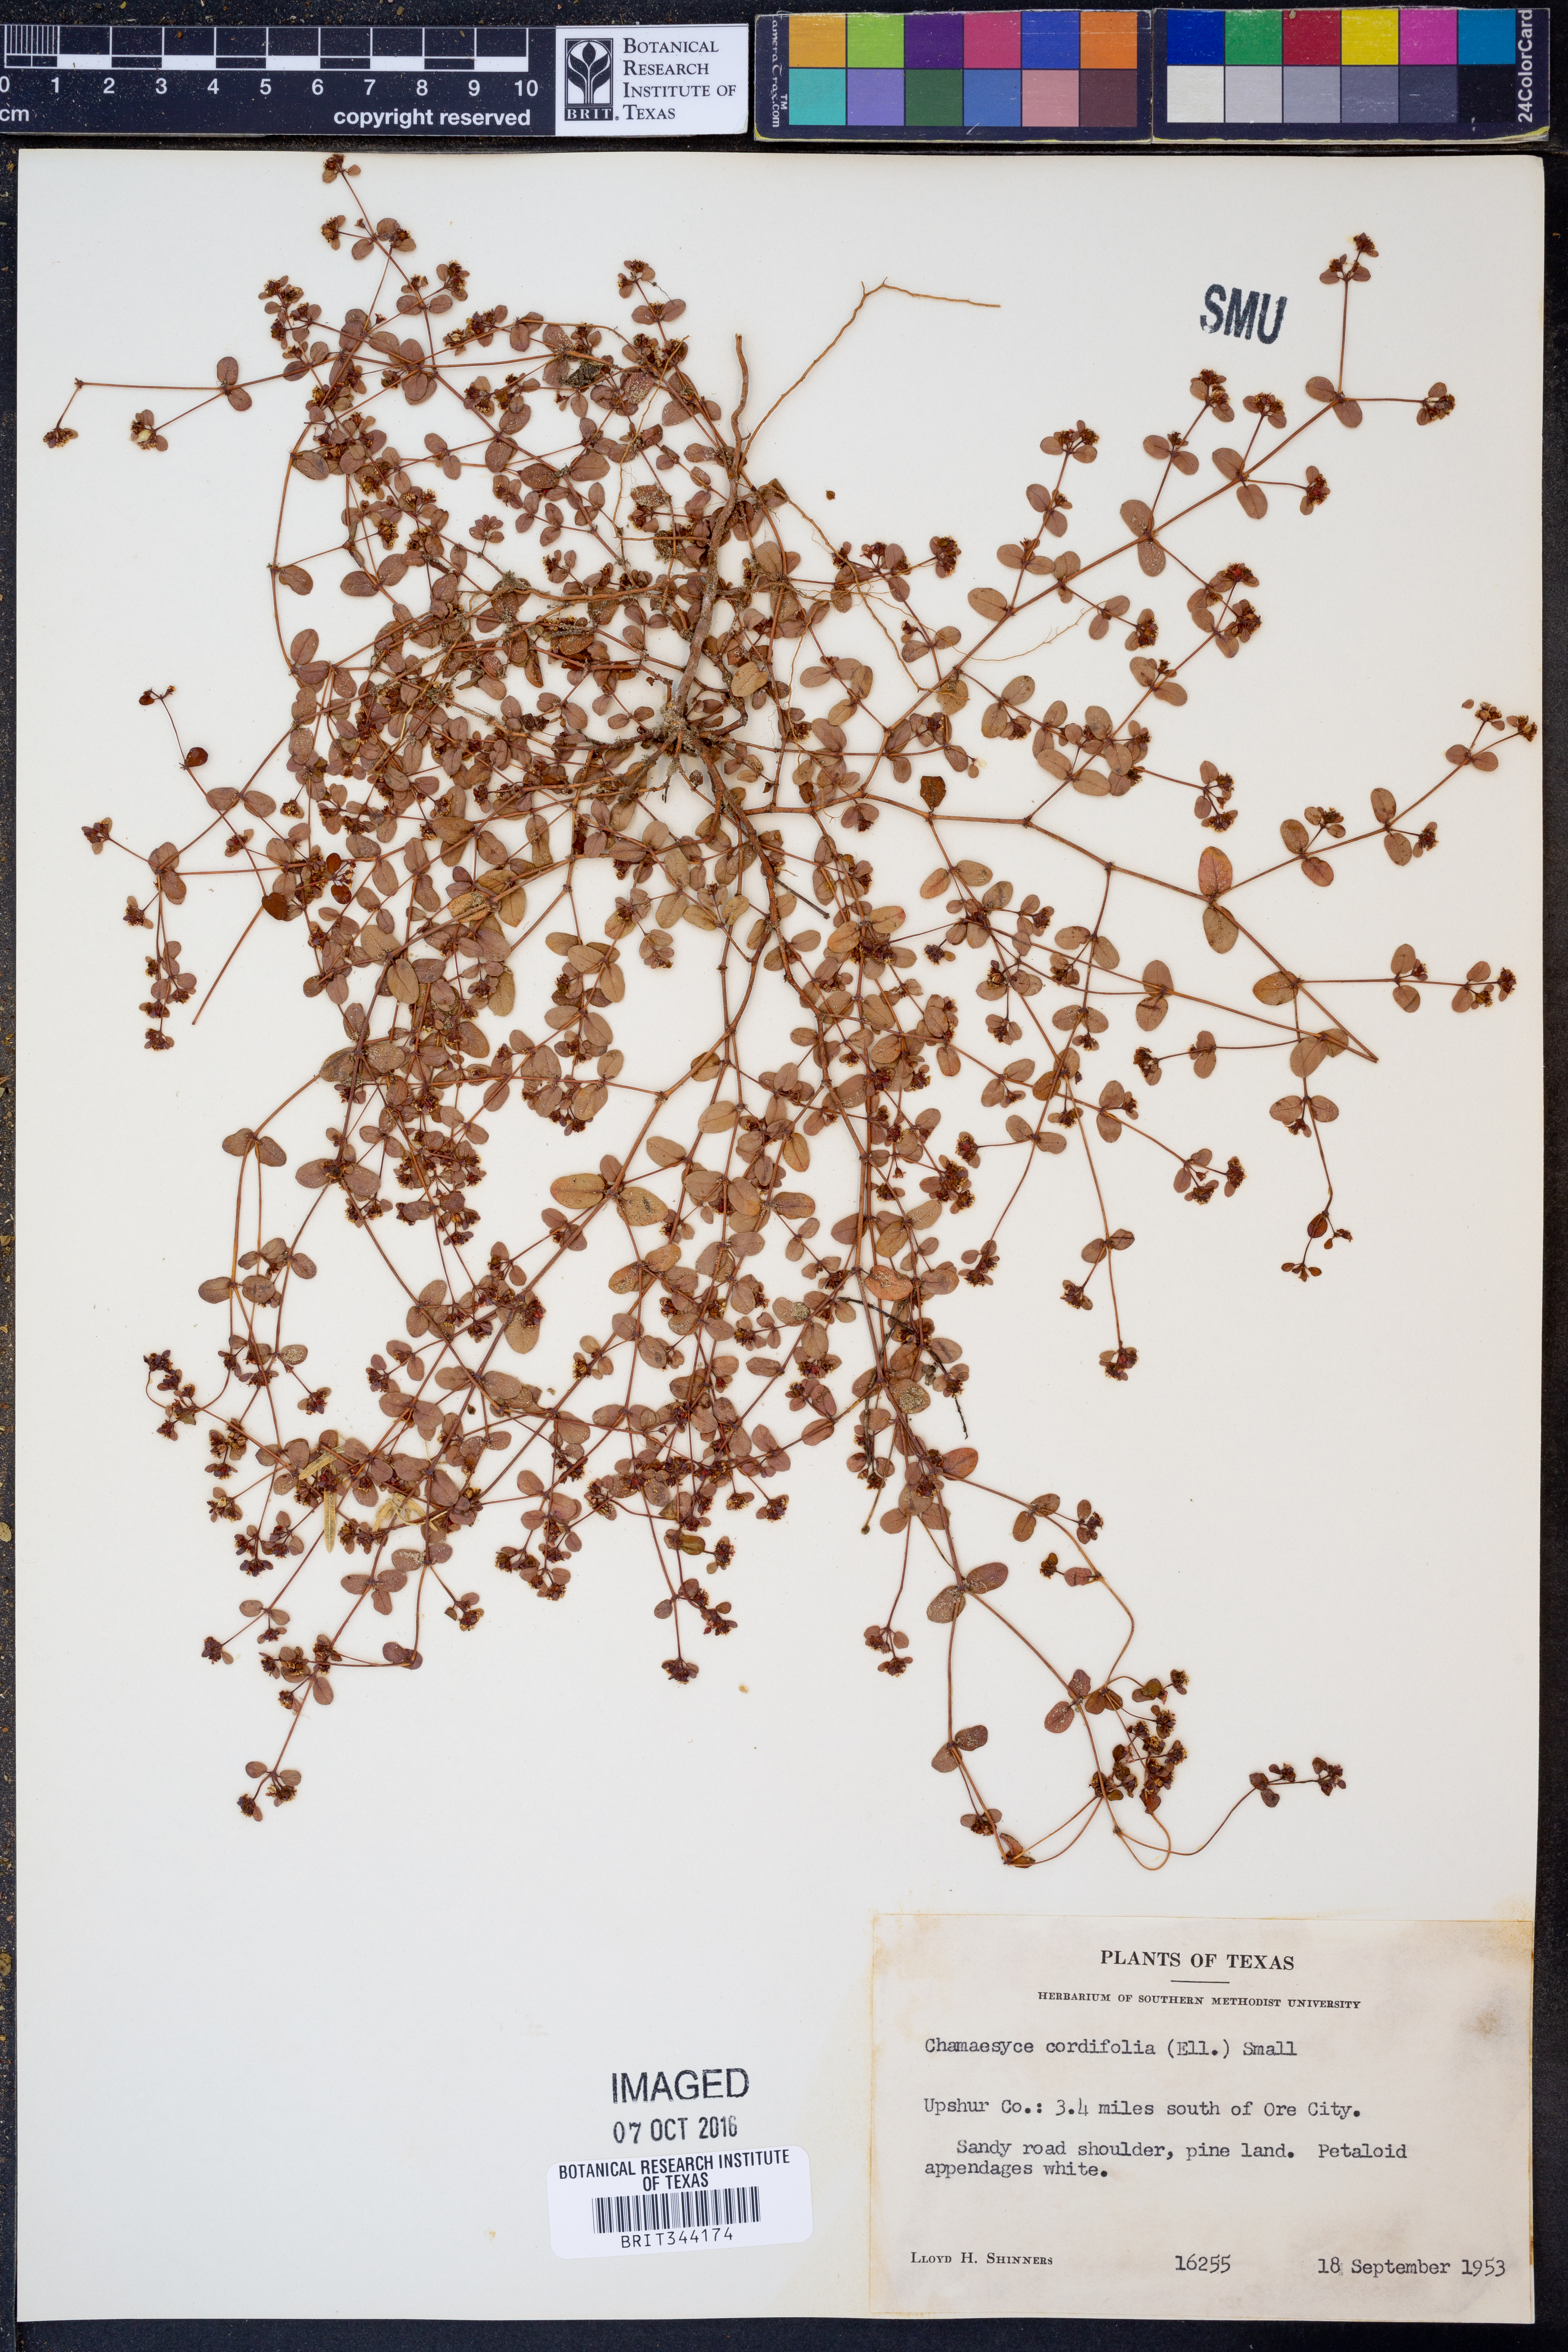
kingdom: Plantae
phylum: Tracheophyta
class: Magnoliopsida
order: Malpighiales
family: Euphorbiaceae
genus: Euphorbia
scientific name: Euphorbia cordifolia
